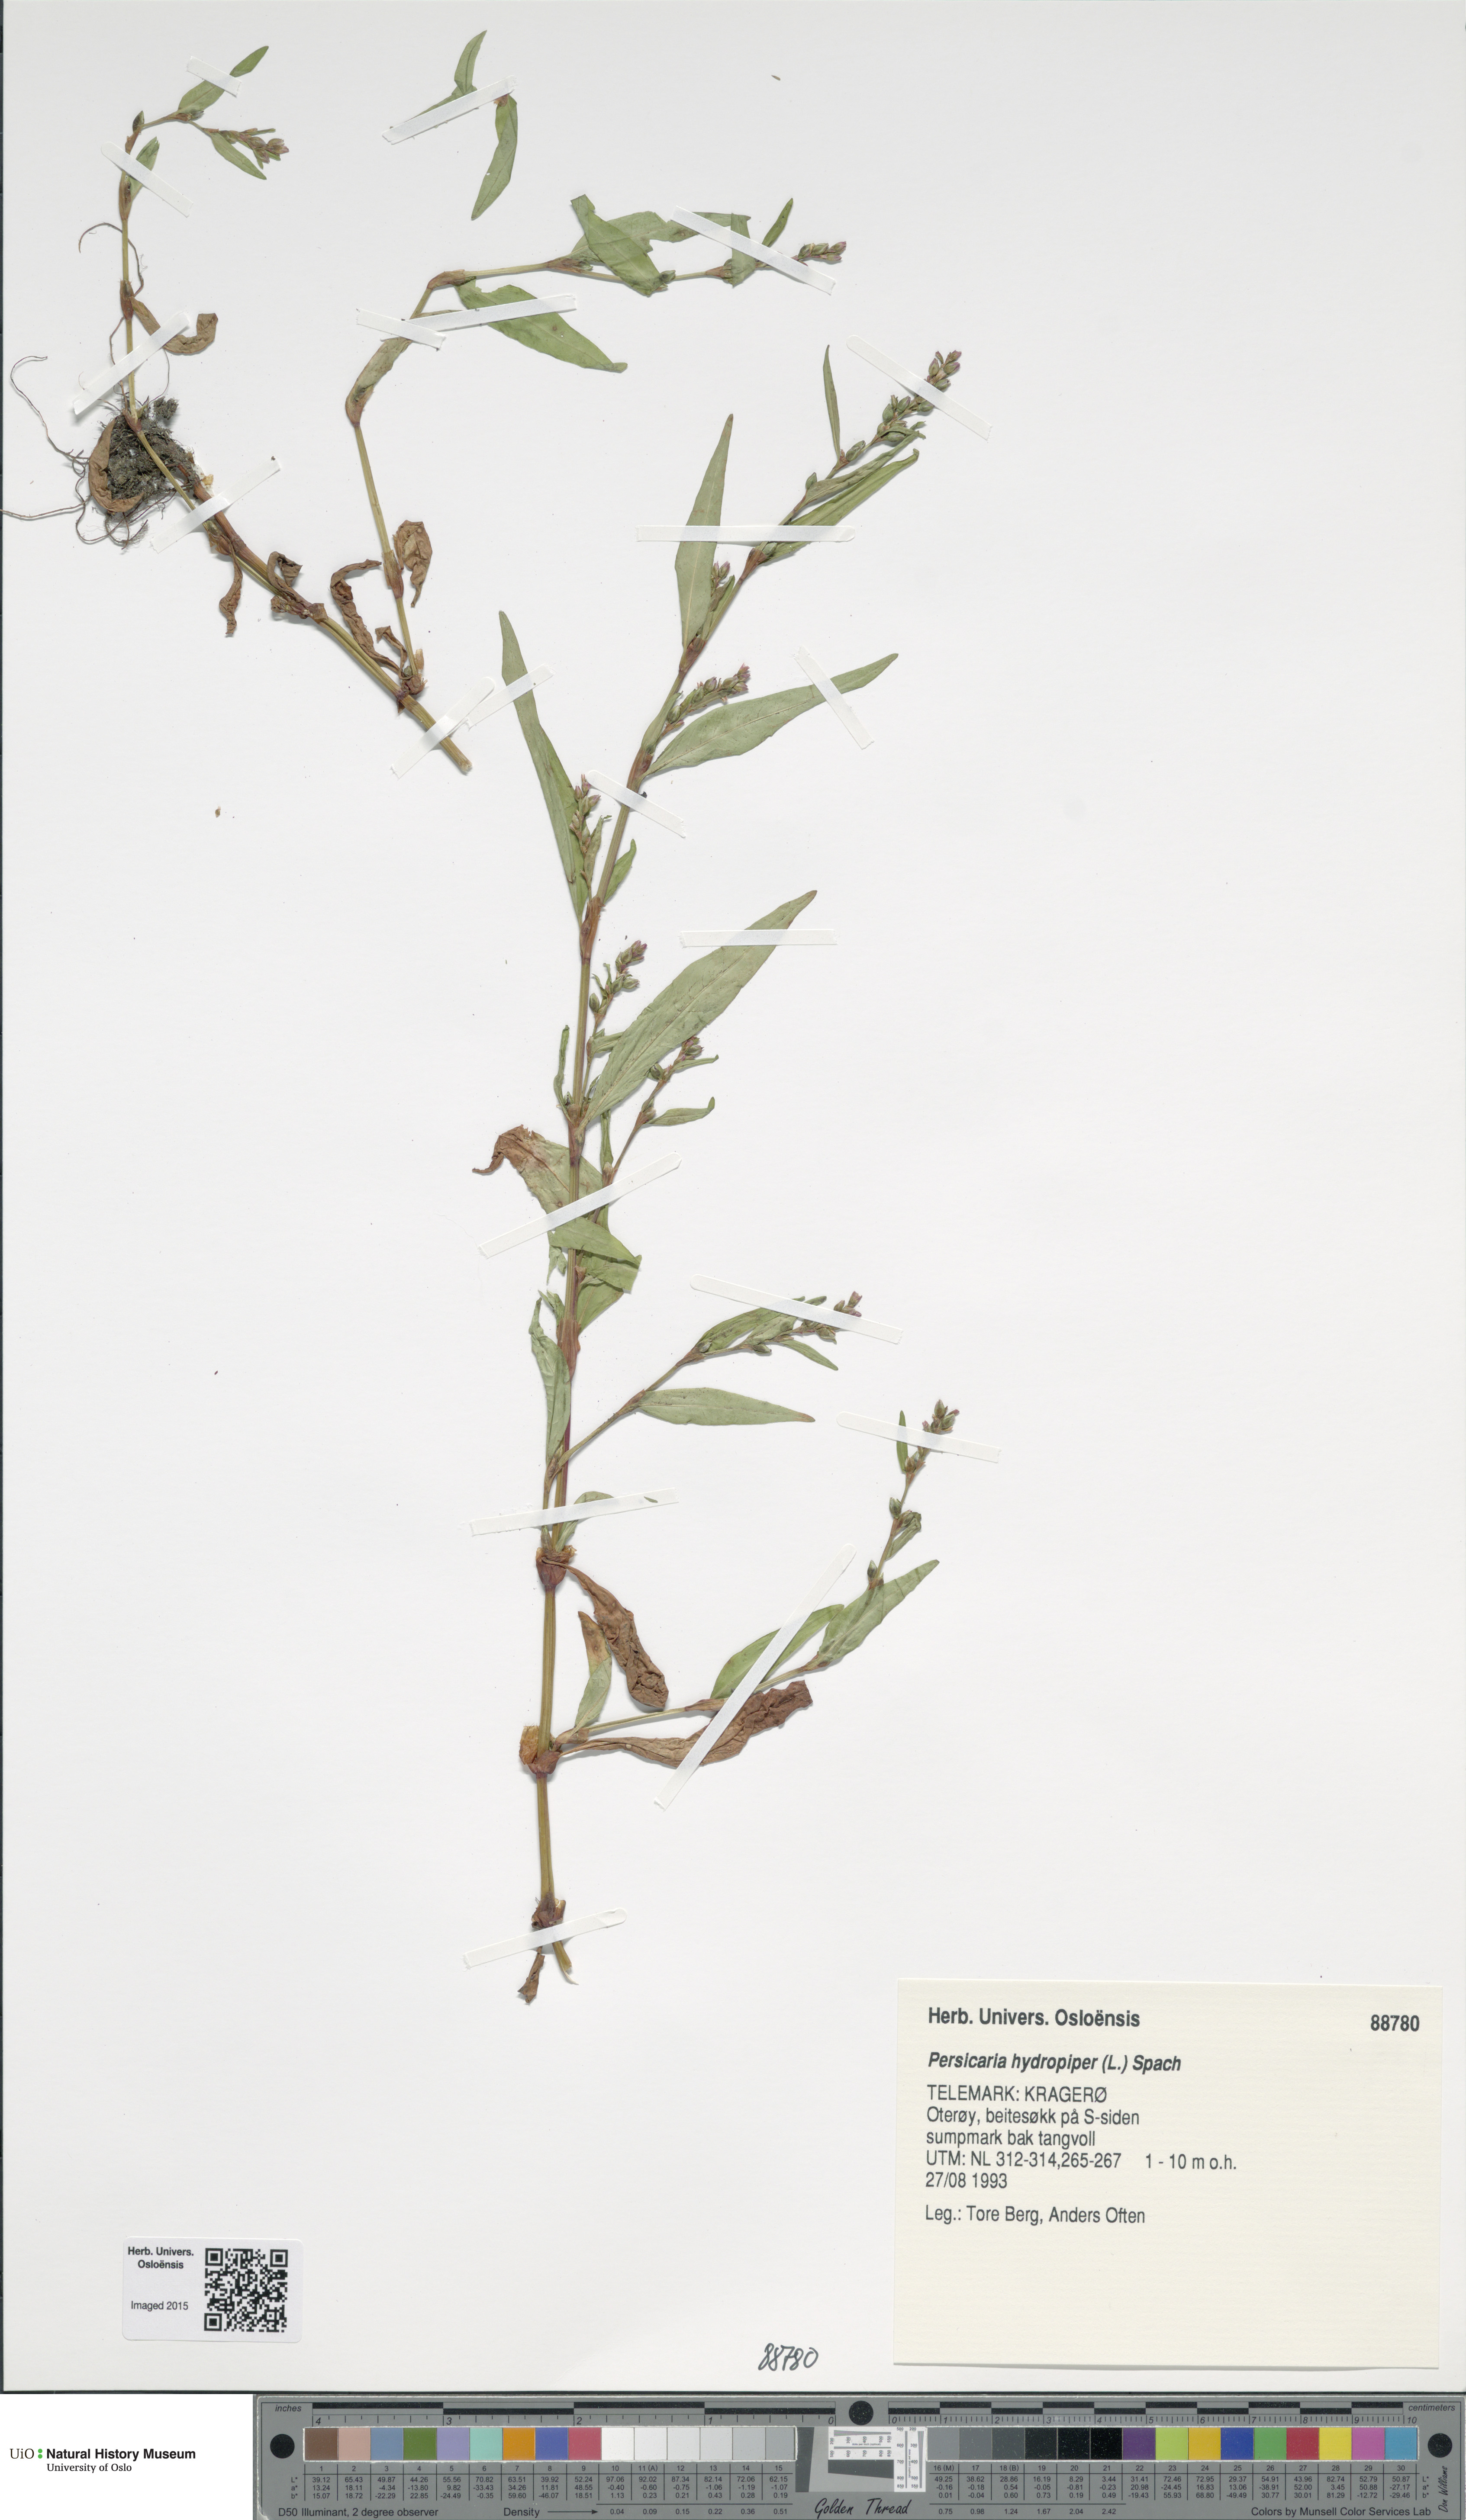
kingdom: Plantae
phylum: Tracheophyta
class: Magnoliopsida
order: Caryophyllales
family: Polygonaceae
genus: Persicaria
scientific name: Persicaria hydropiper
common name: Water-pepper
